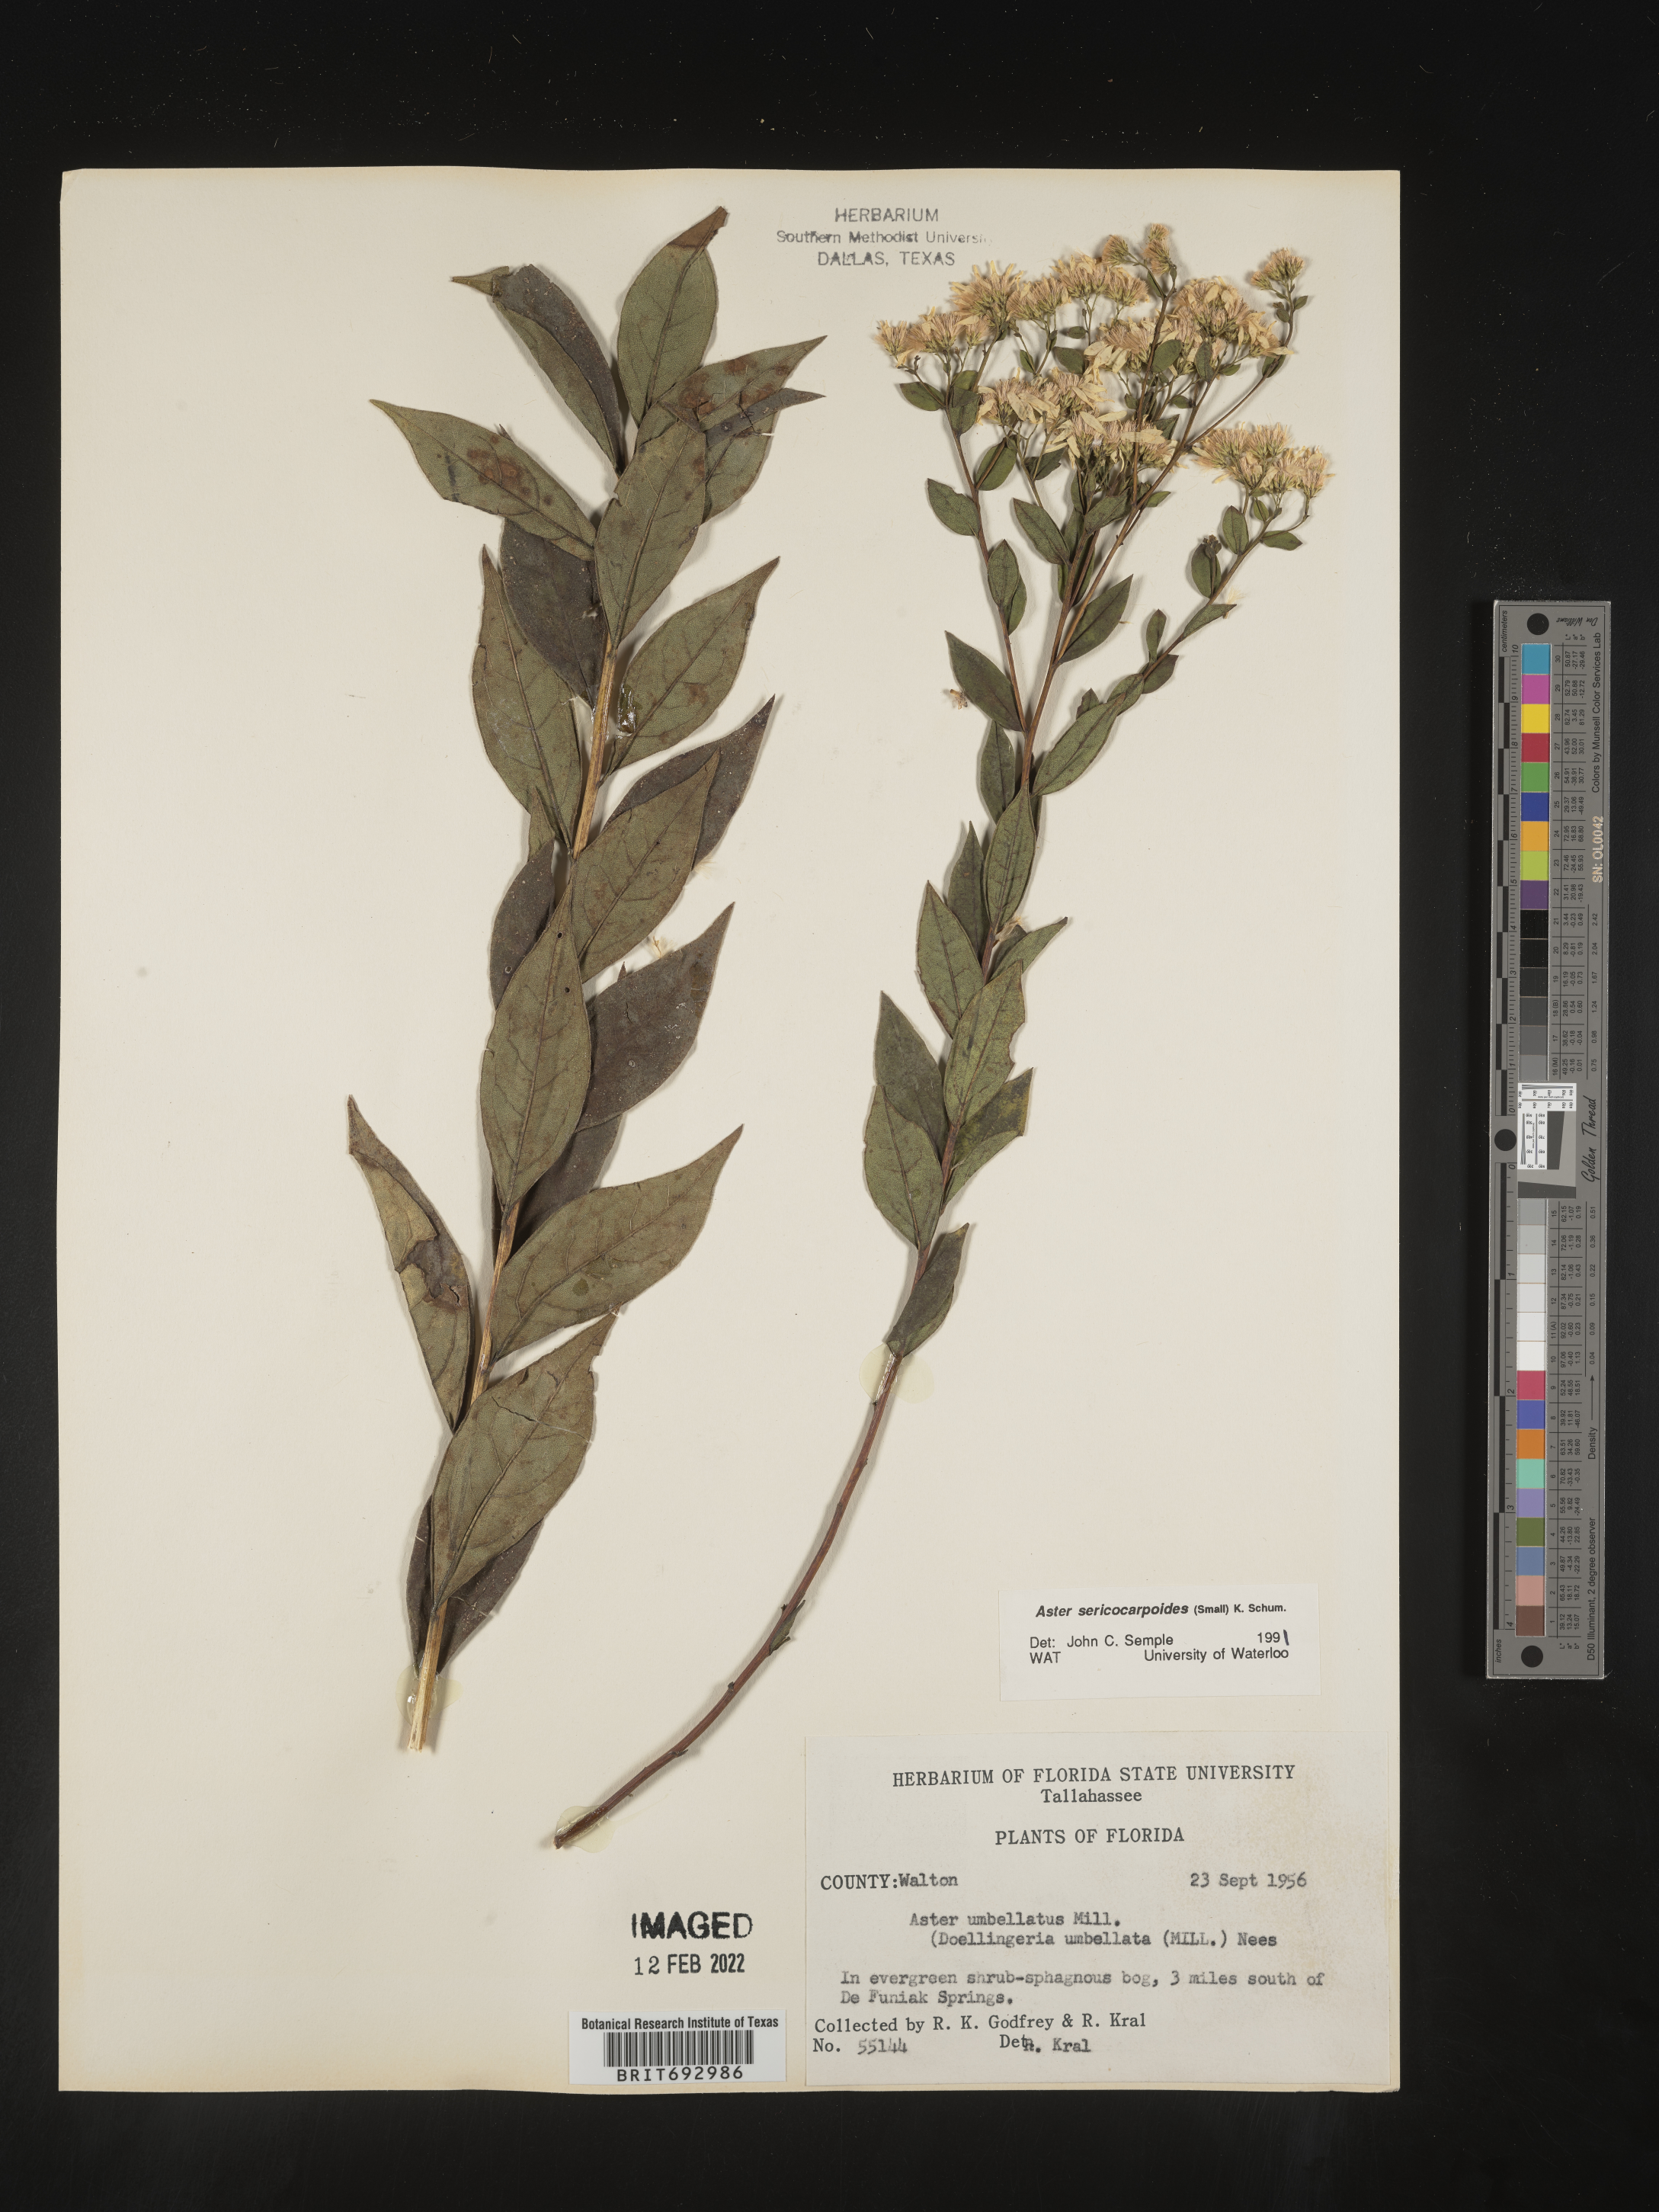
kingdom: Plantae
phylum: Tracheophyta
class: Magnoliopsida
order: Asterales
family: Asteraceae
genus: Doellingeria
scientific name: Doellingeria sericocarpoides
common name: Southern tall flat-top aster
